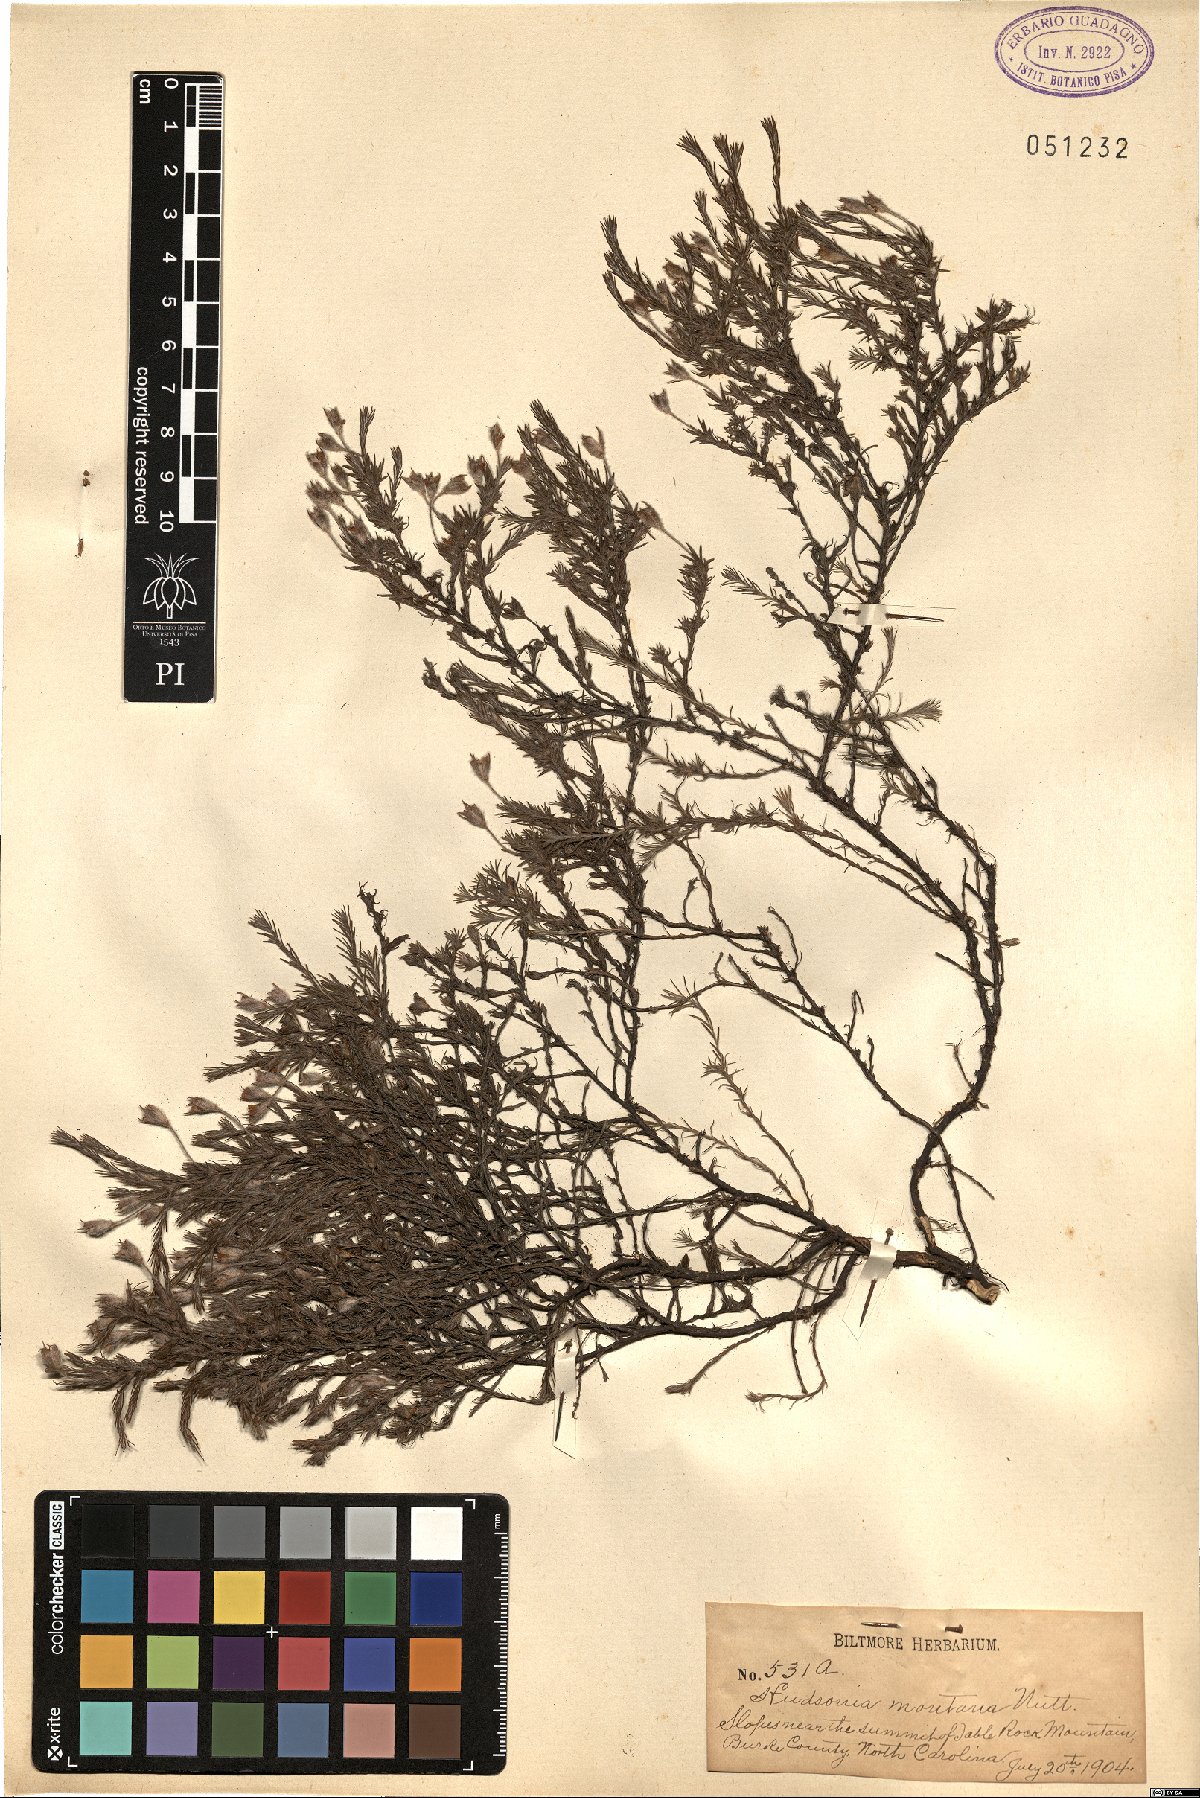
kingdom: Plantae
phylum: Tracheophyta
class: Magnoliopsida
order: Malvales
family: Cistaceae
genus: Hudsonia
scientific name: Hudsonia montana
